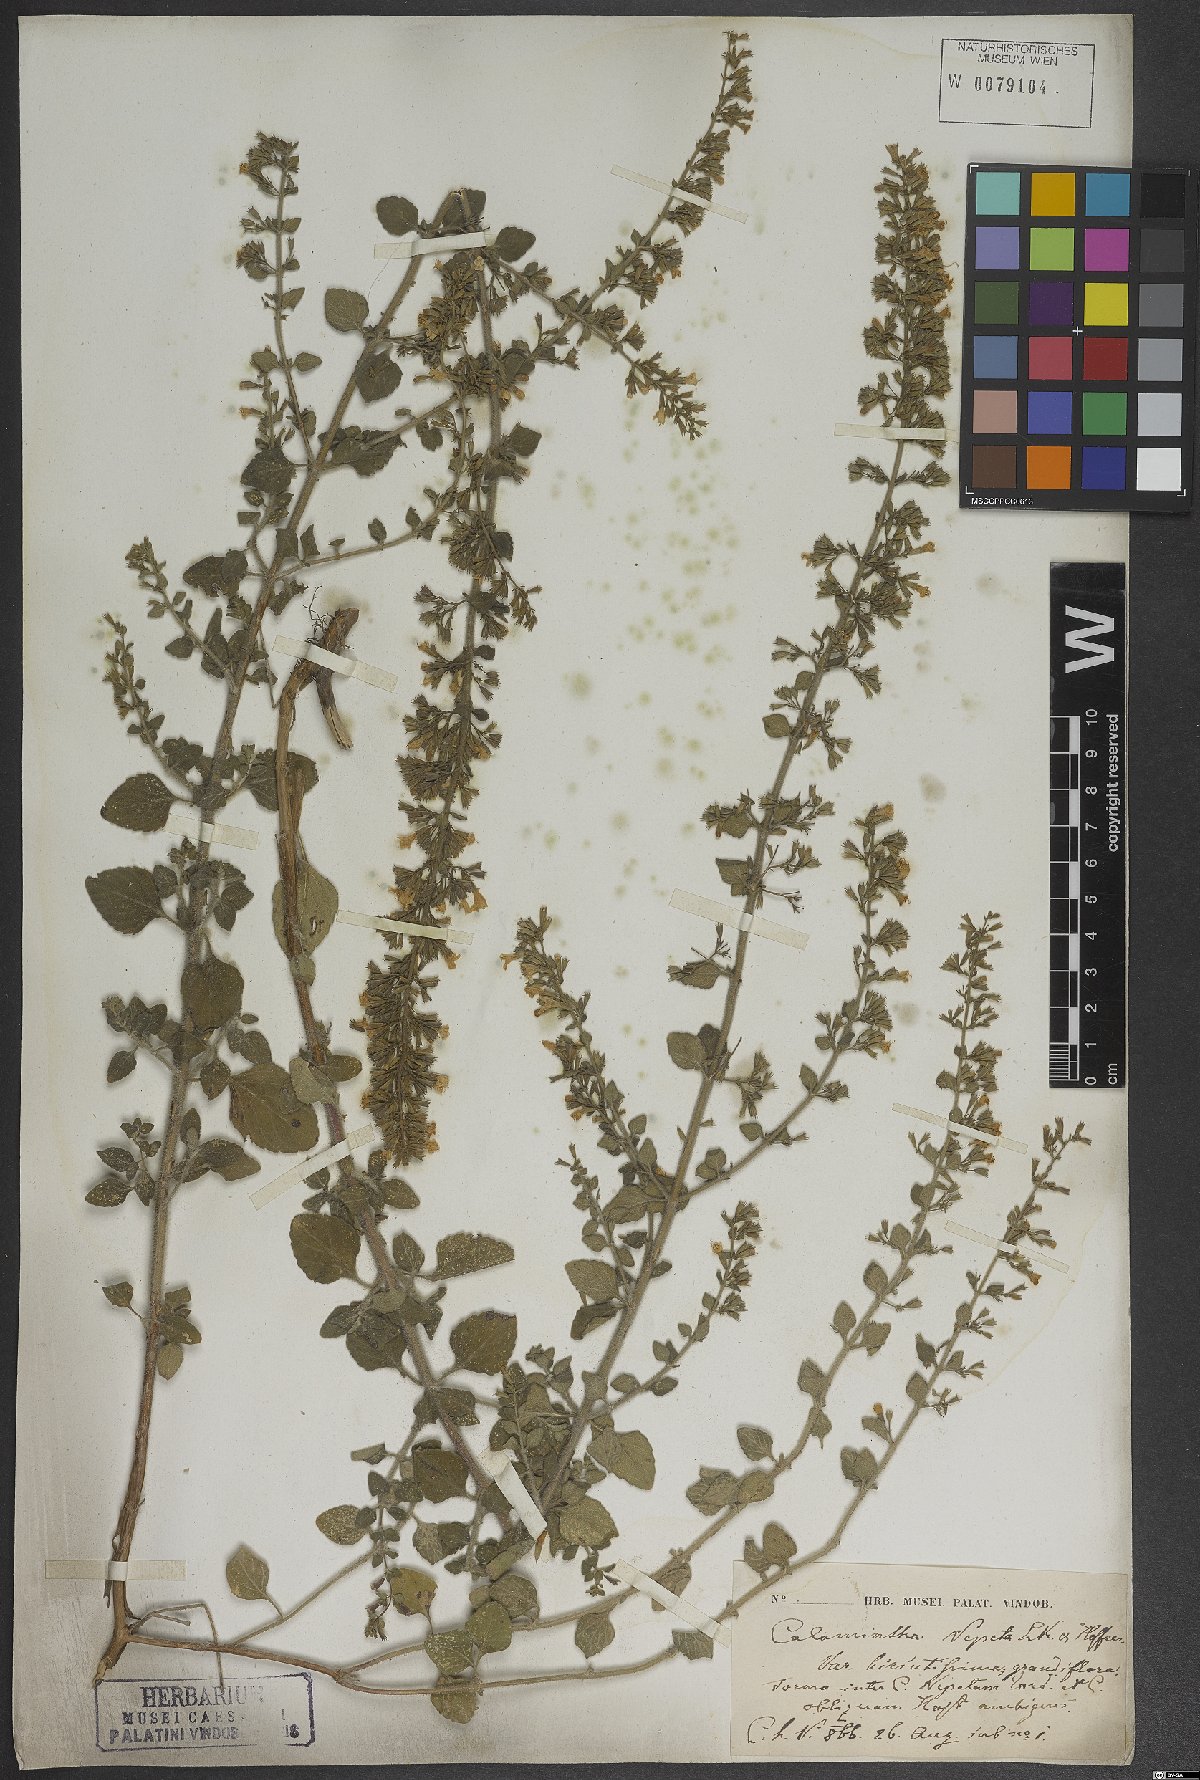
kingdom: Plantae
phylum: Tracheophyta
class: Magnoliopsida
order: Lamiales
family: Lamiaceae
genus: Clinopodium
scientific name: Clinopodium nepeta
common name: Lesser calamint
